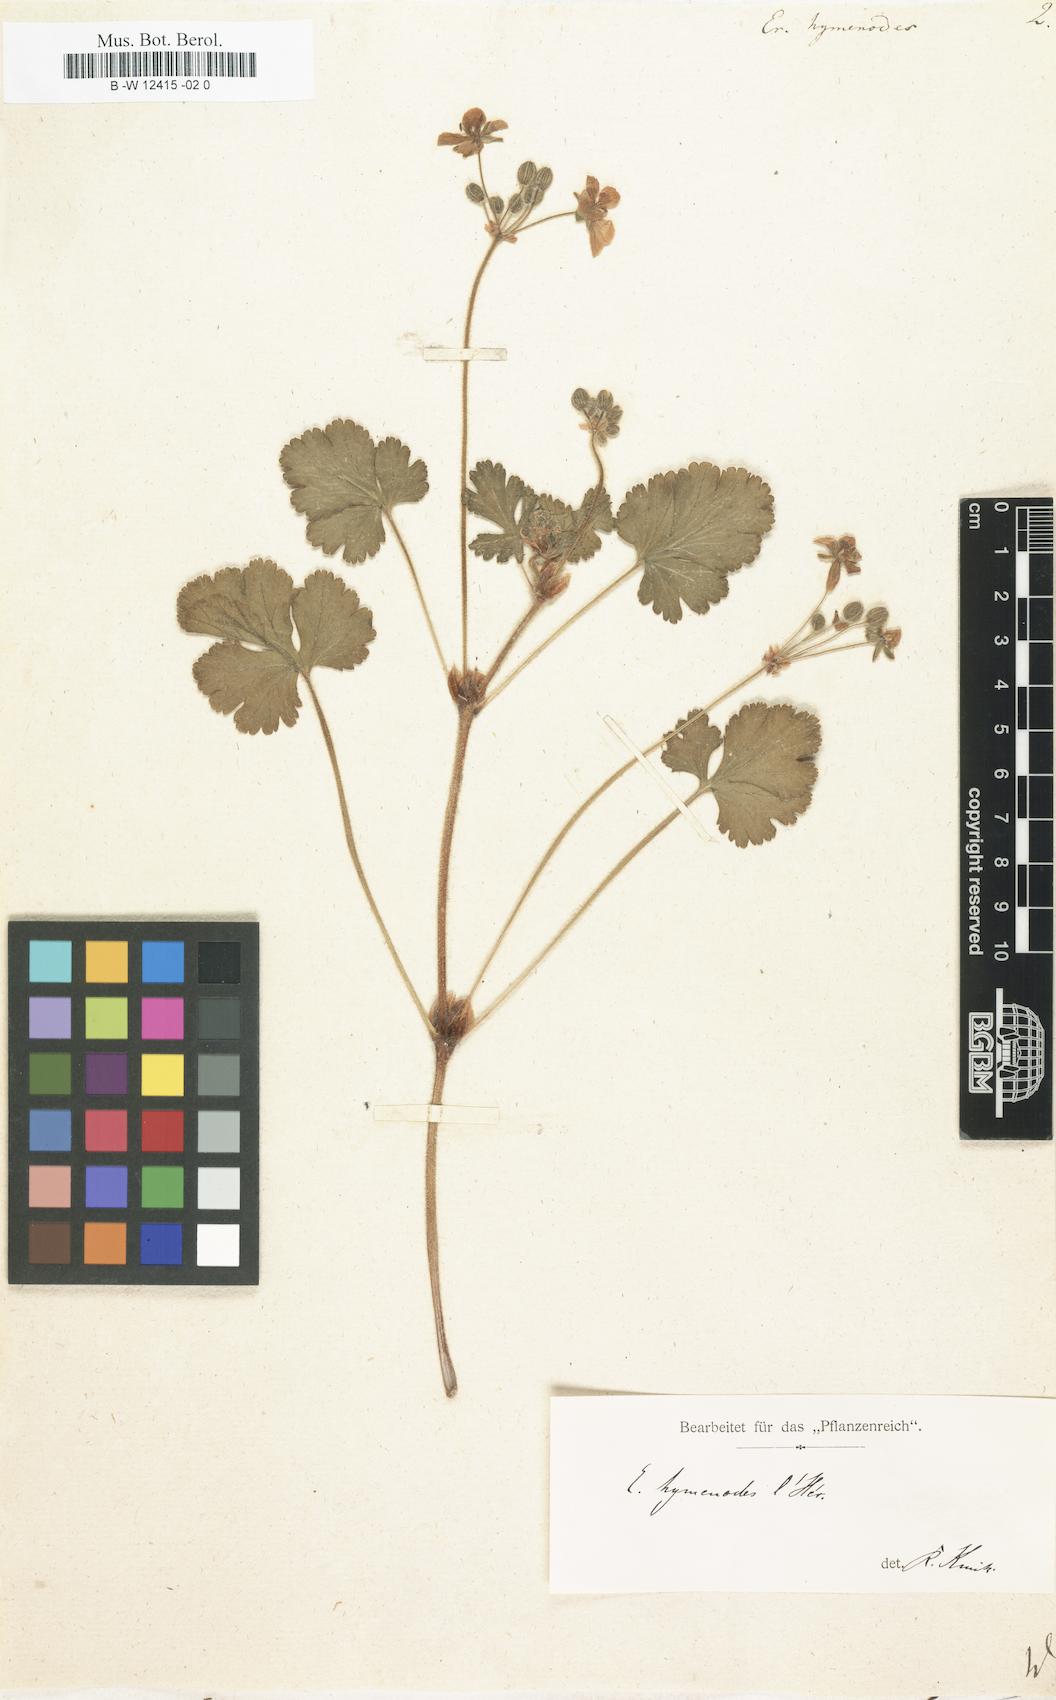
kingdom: Plantae
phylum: Tracheophyta
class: Magnoliopsida
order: Geraniales
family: Geraniaceae
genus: Erodium
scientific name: Erodium trifolium
